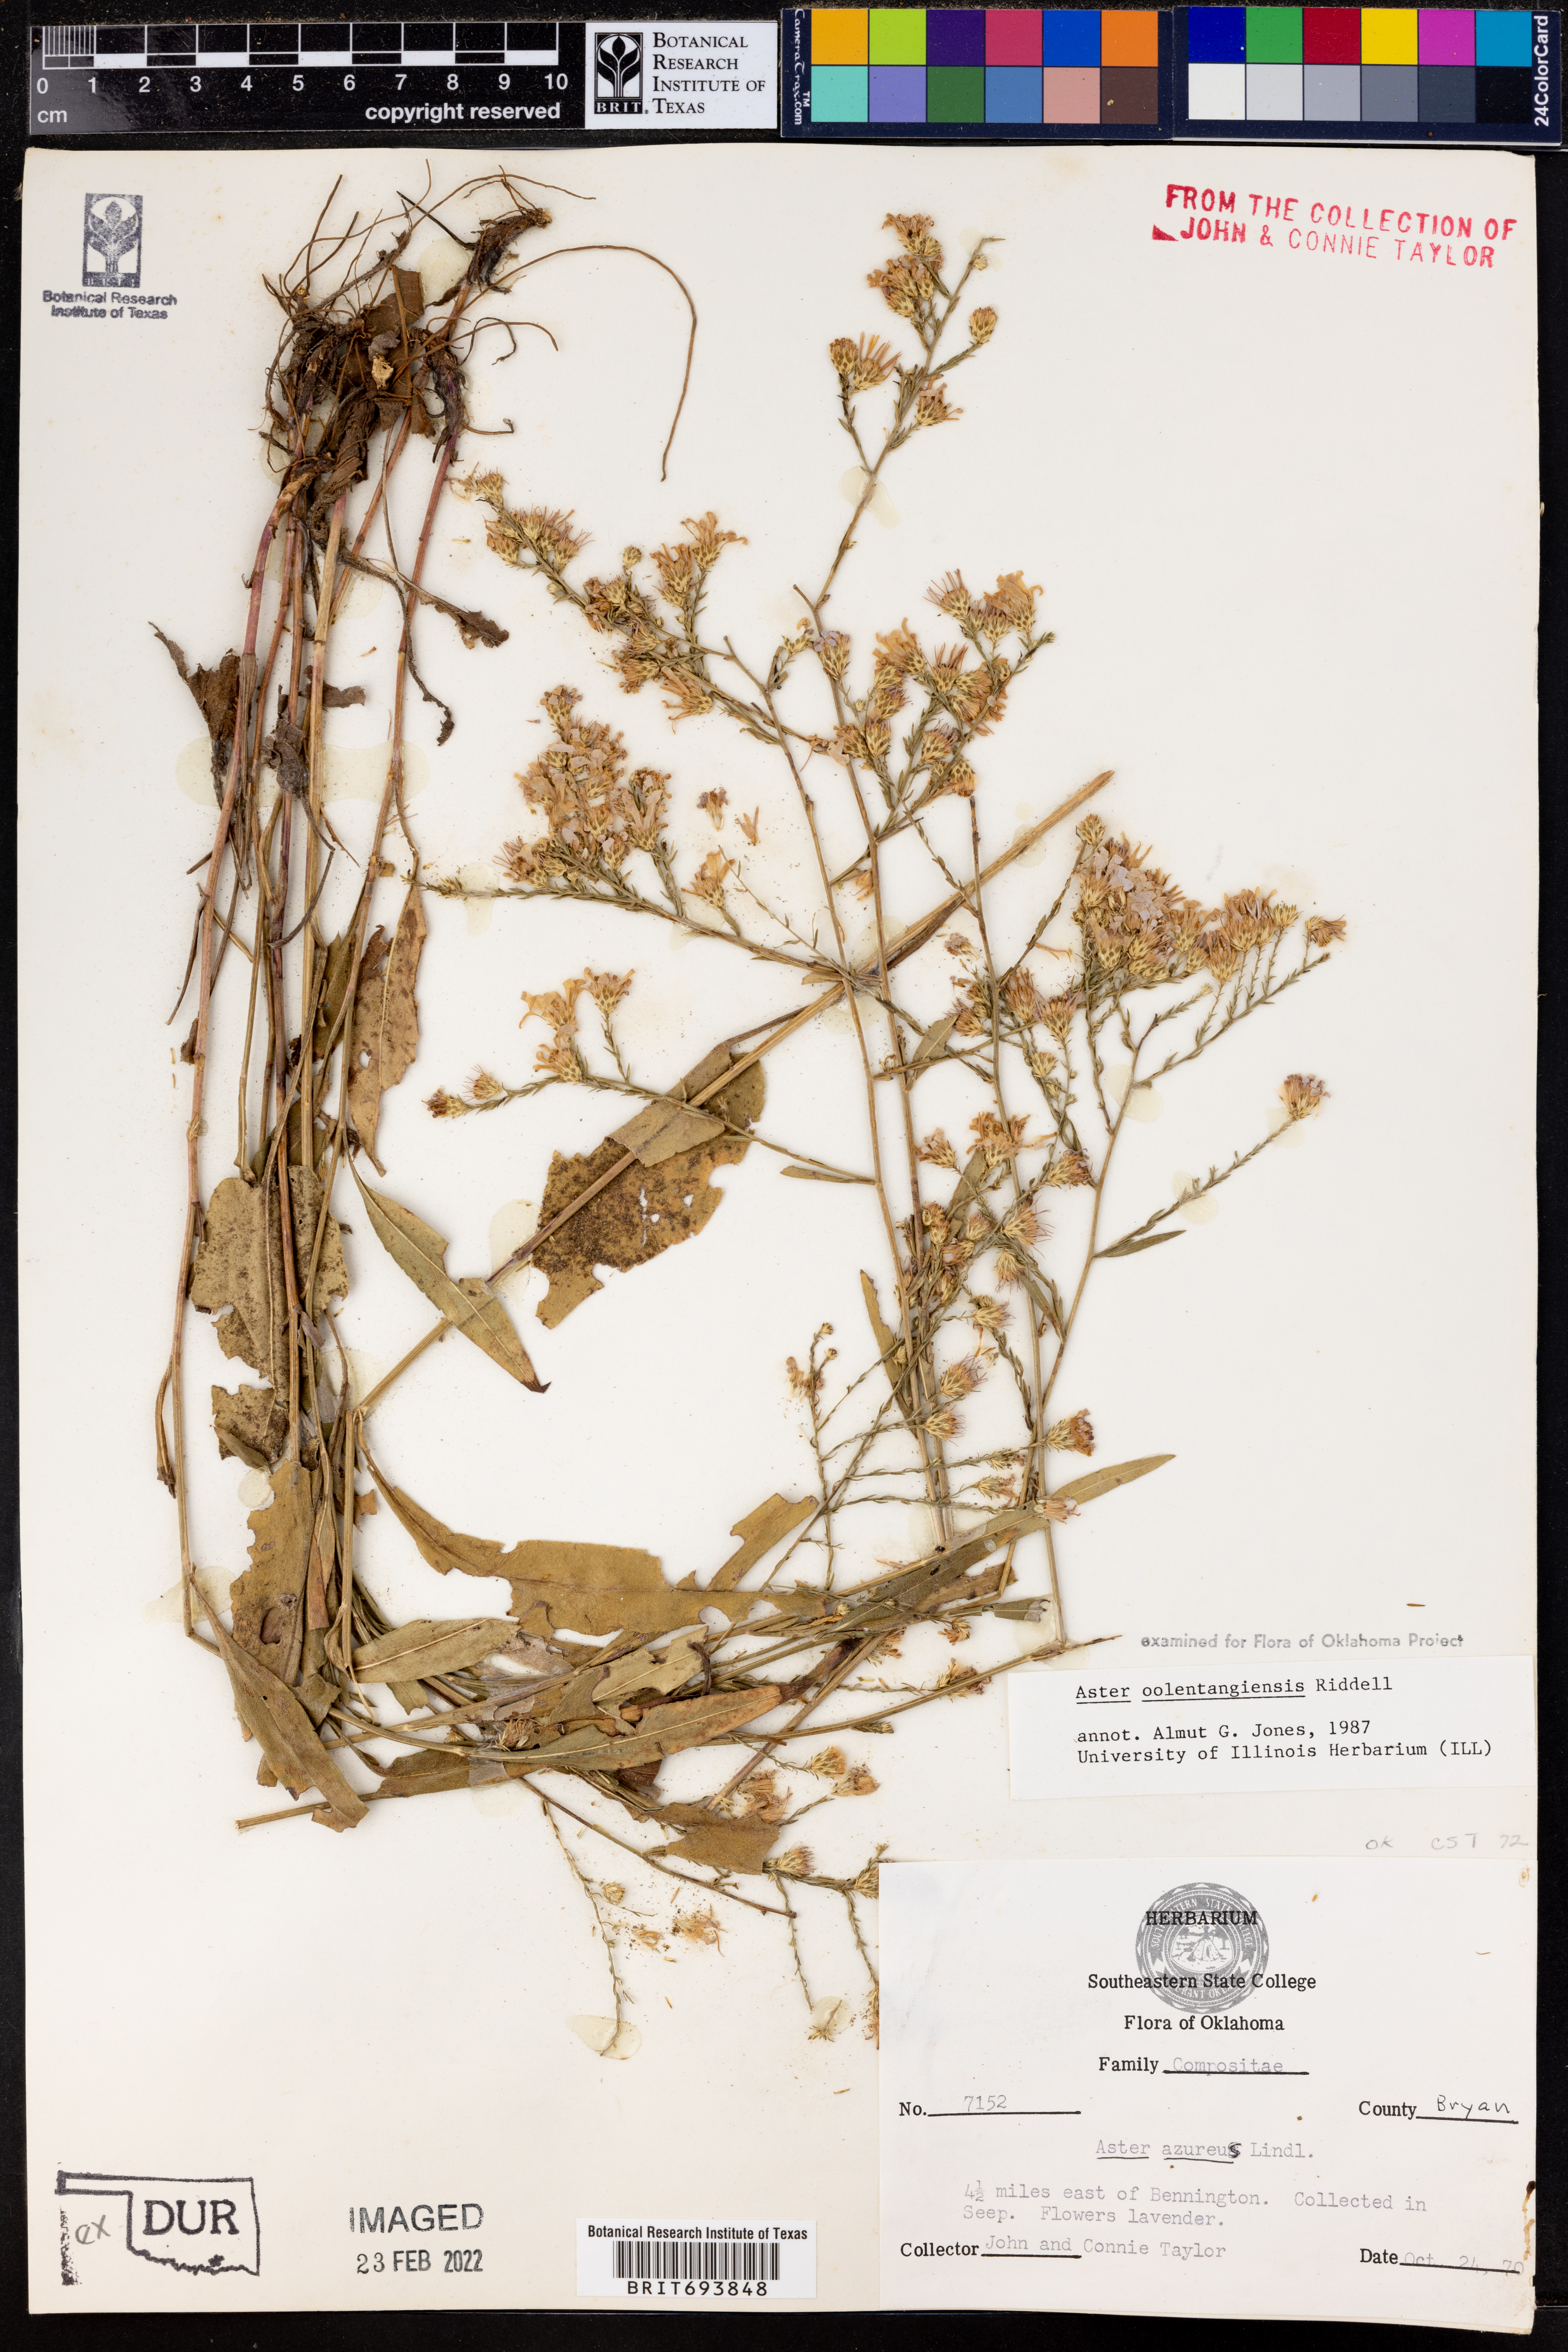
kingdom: Plantae
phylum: Tracheophyta
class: Magnoliopsida
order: Asterales
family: Asteraceae
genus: Symphyotrichum
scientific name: Symphyotrichum oolentangiense
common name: Azure aster
